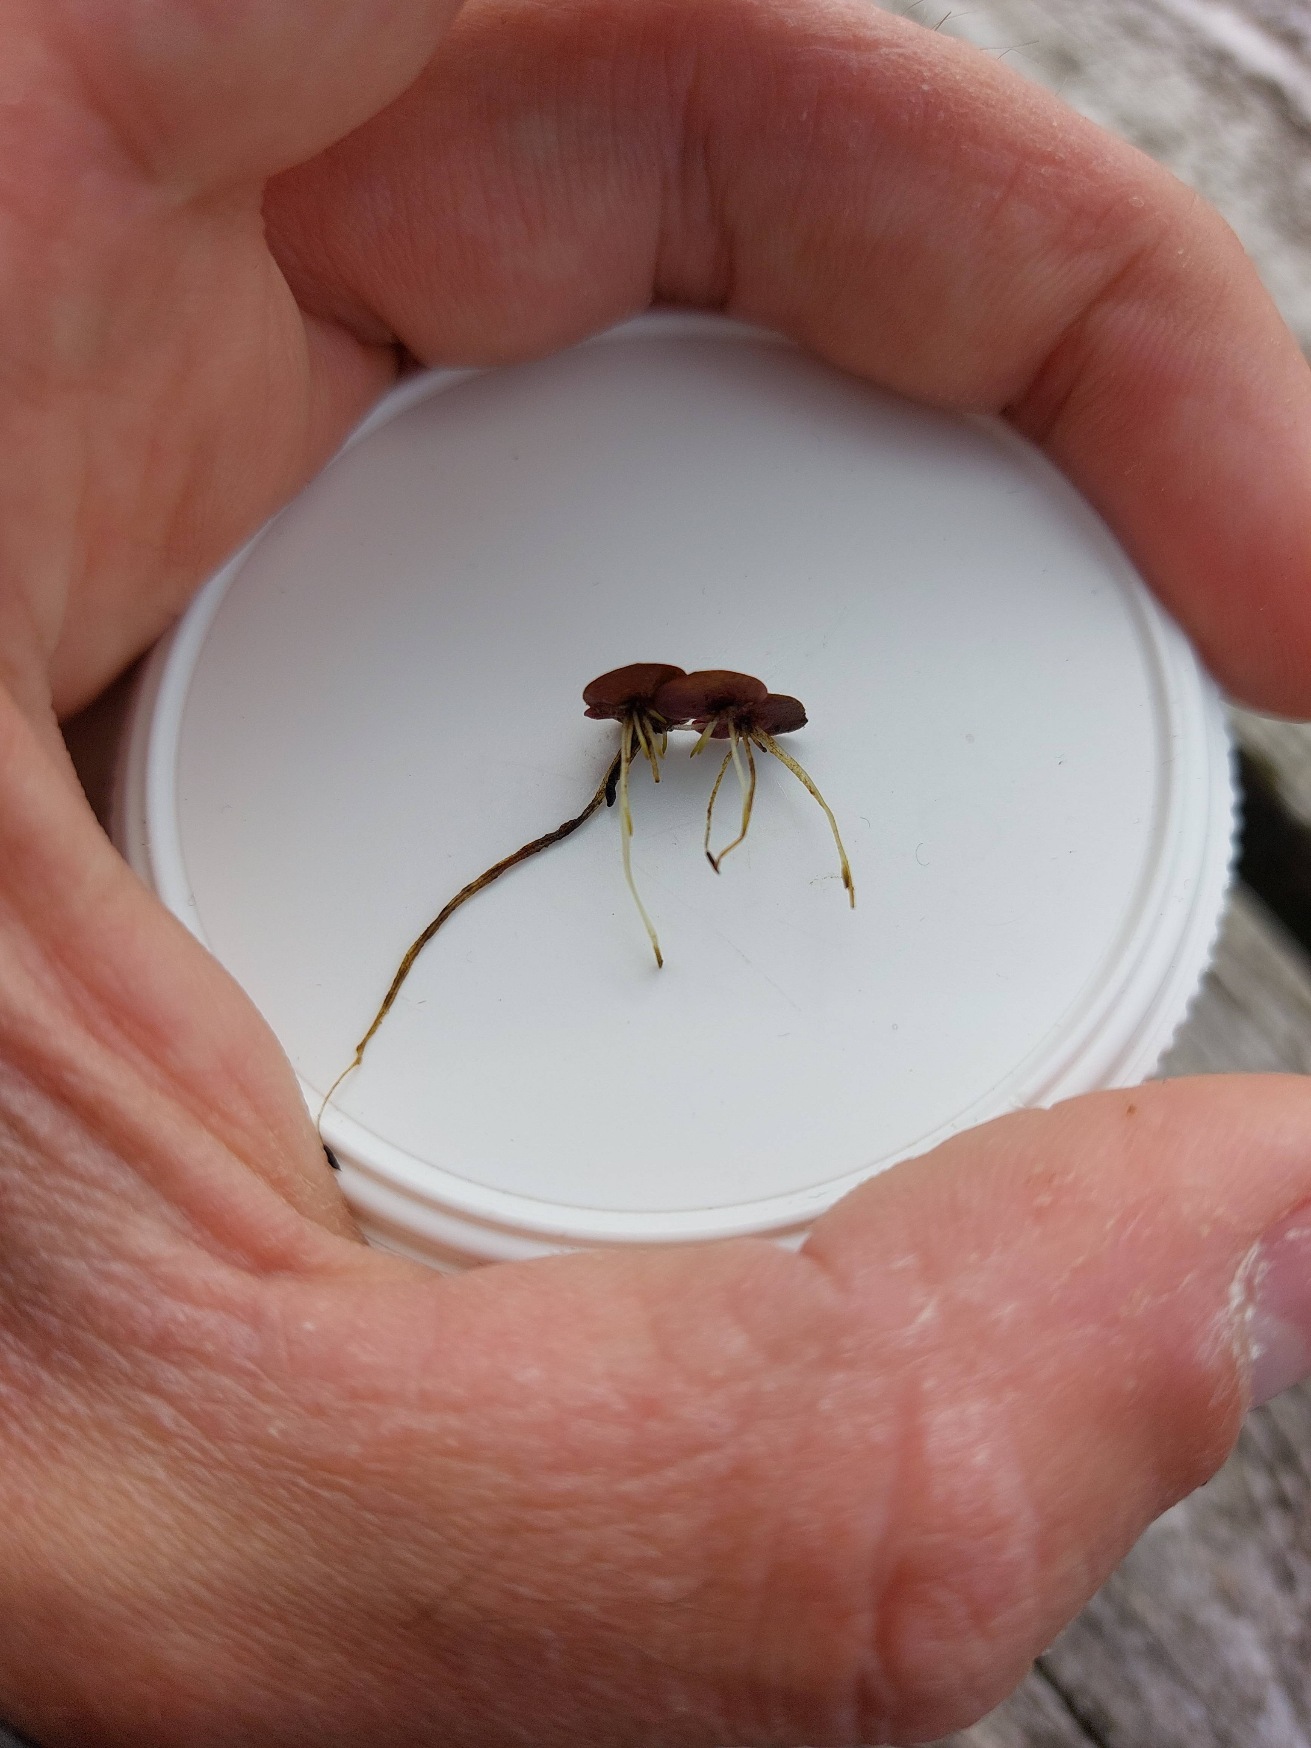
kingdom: Plantae
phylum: Tracheophyta
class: Liliopsida
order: Alismatales
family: Araceae
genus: Spirodela
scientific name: Spirodela polyrhiza
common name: Stor andemad
